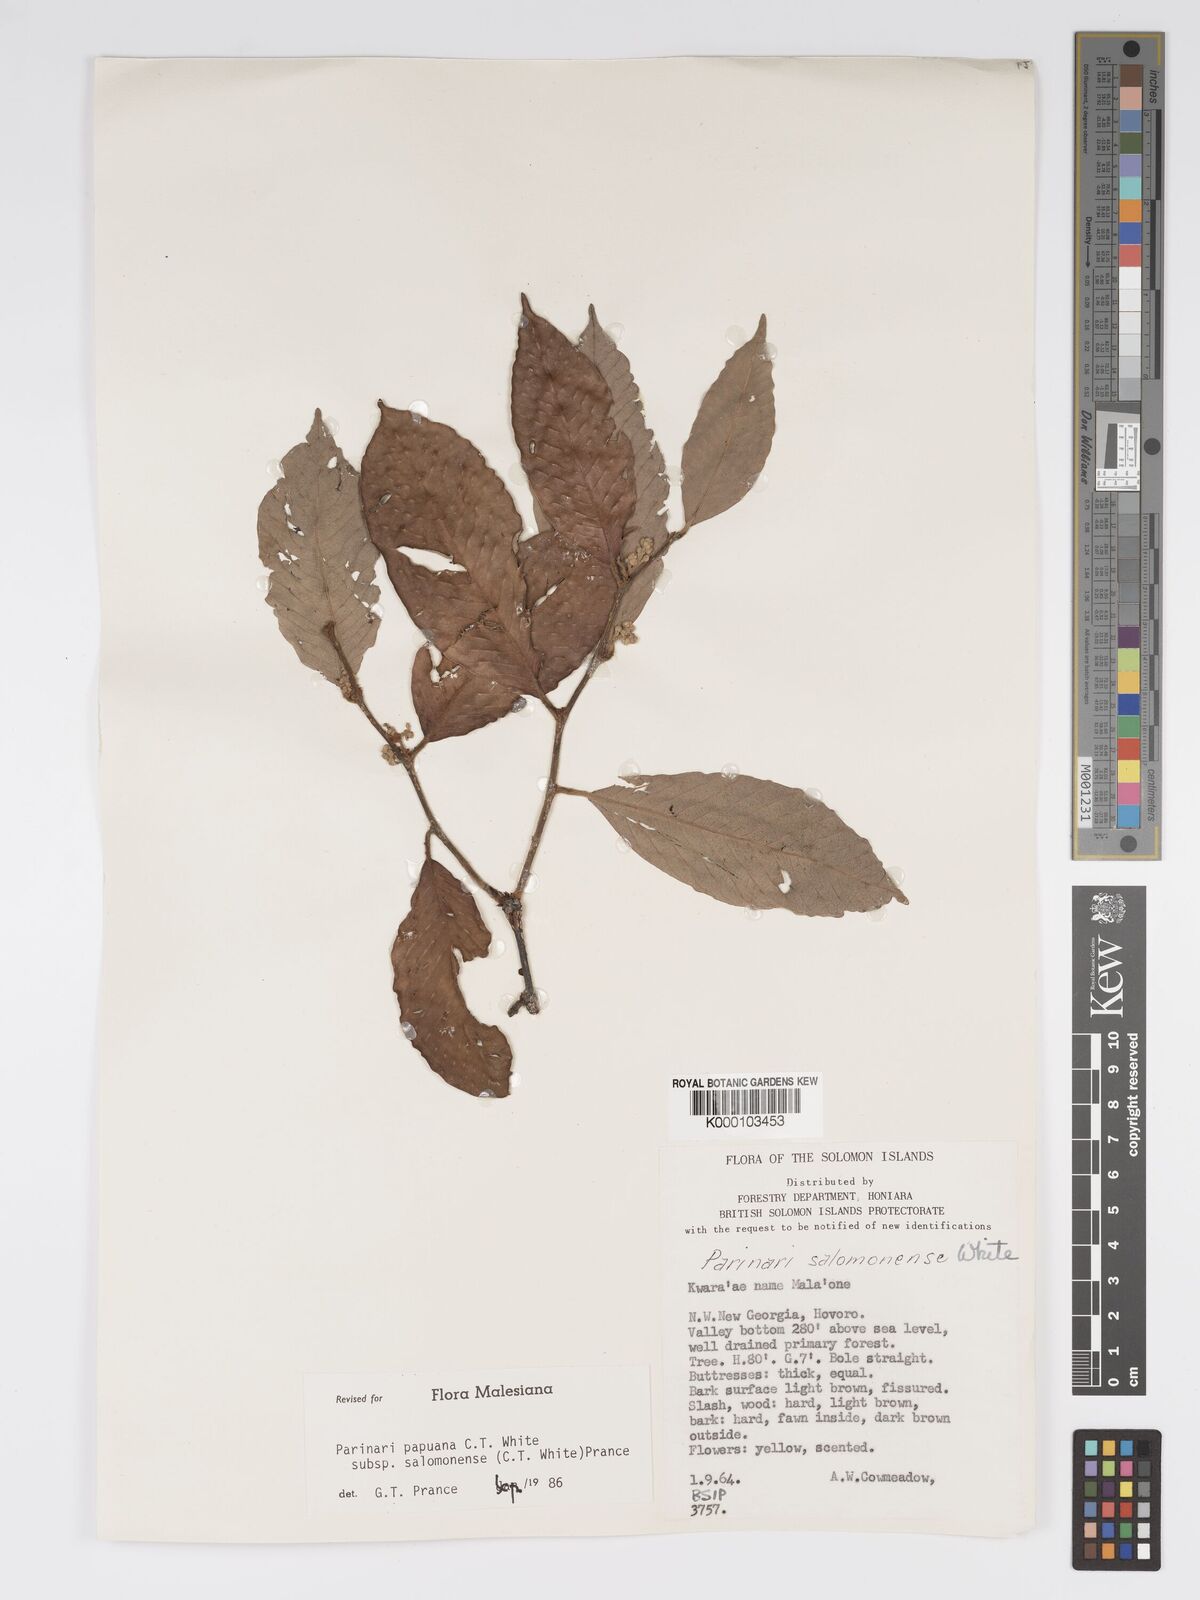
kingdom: Plantae
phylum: Tracheophyta
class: Magnoliopsida
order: Malpighiales
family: Chrysobalanaceae
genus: Parinari
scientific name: Parinari papuana
